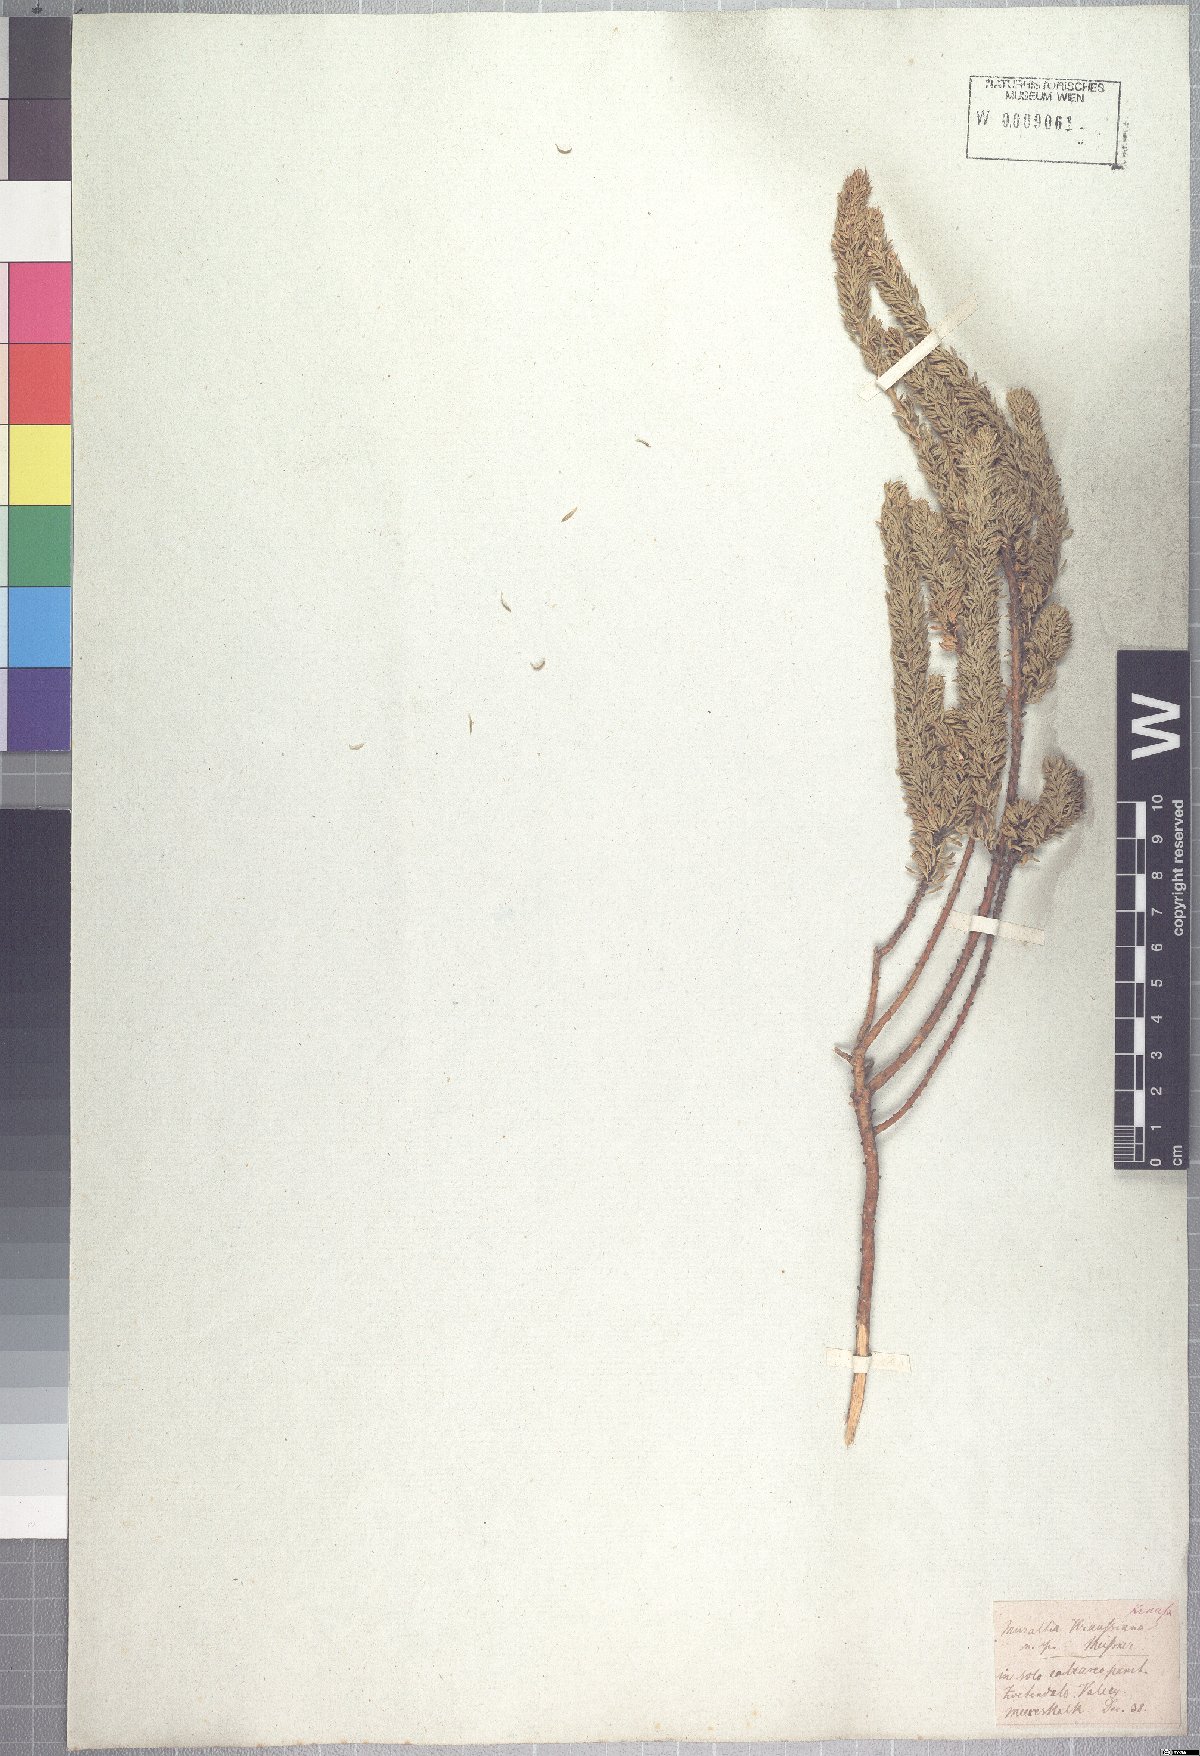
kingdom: Plantae
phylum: Tracheophyta
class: Magnoliopsida
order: Fabales
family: Polygalaceae
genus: Muraltia
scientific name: Muraltia mitior
